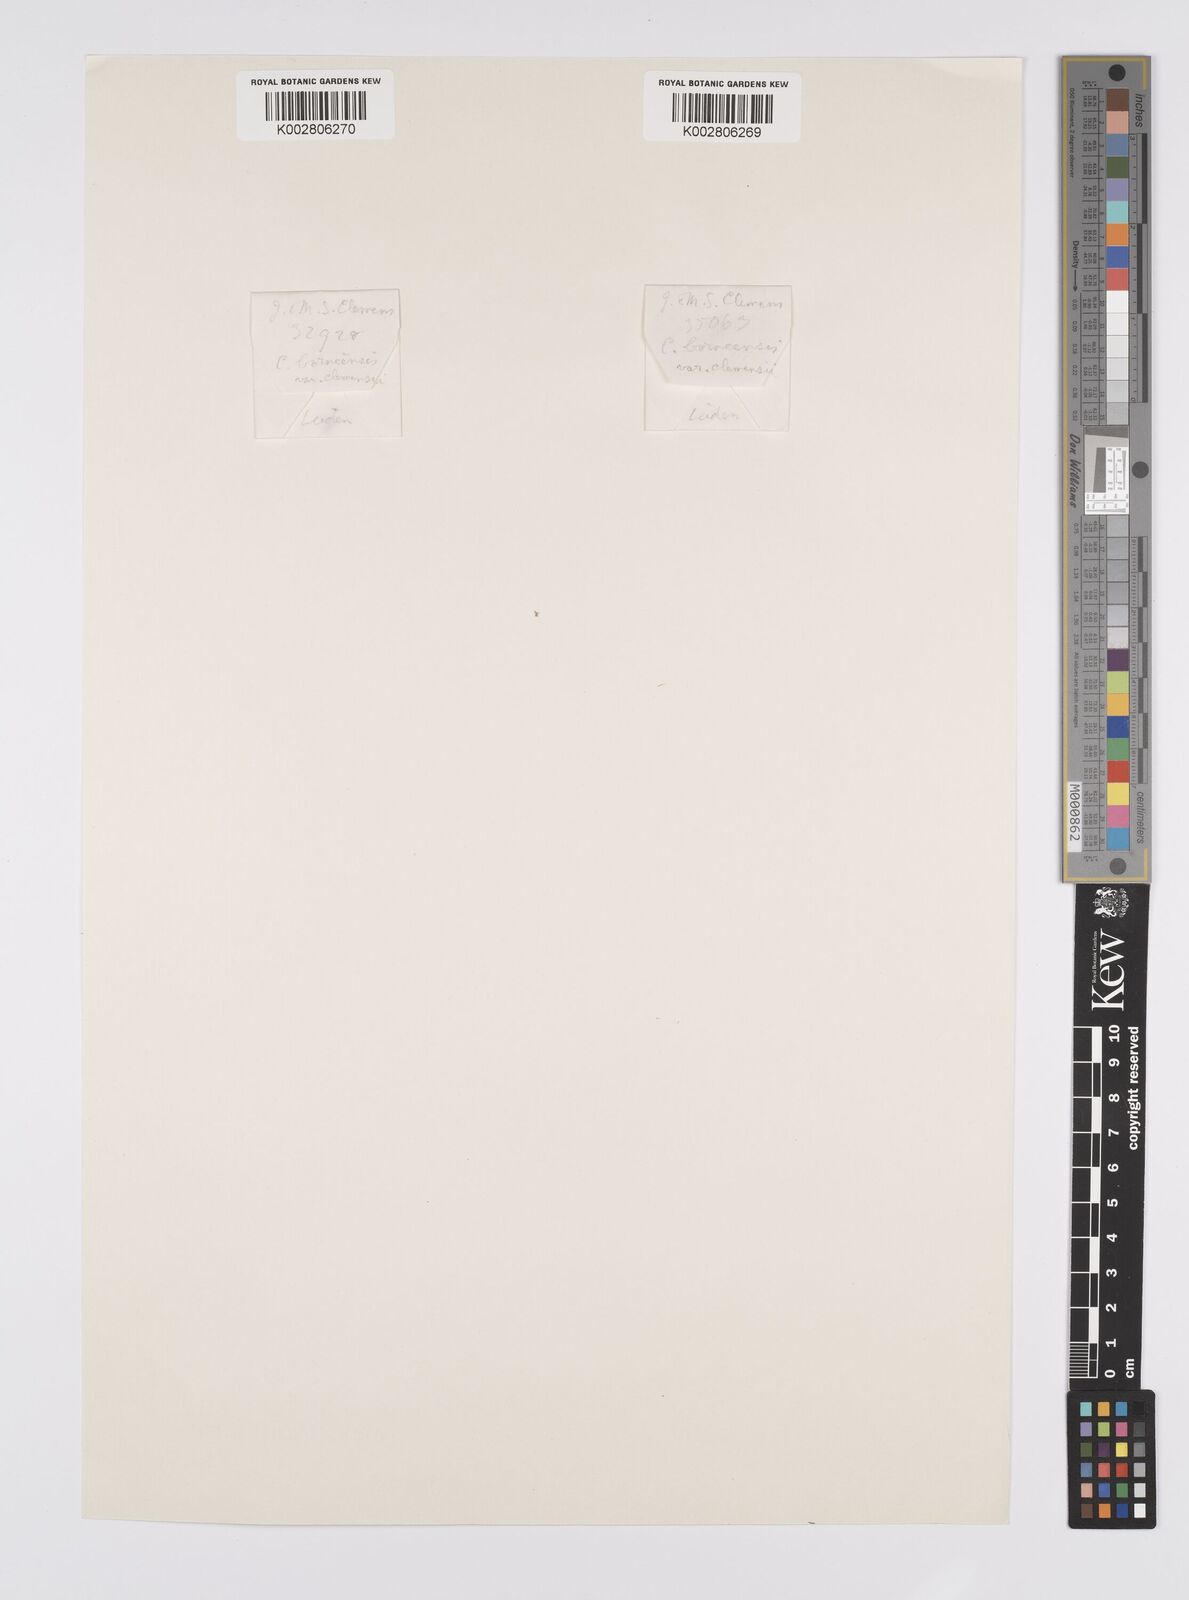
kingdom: Plantae
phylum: Tracheophyta
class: Liliopsida
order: Poales
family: Cyperaceae
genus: Carex
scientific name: Carex perakensis
